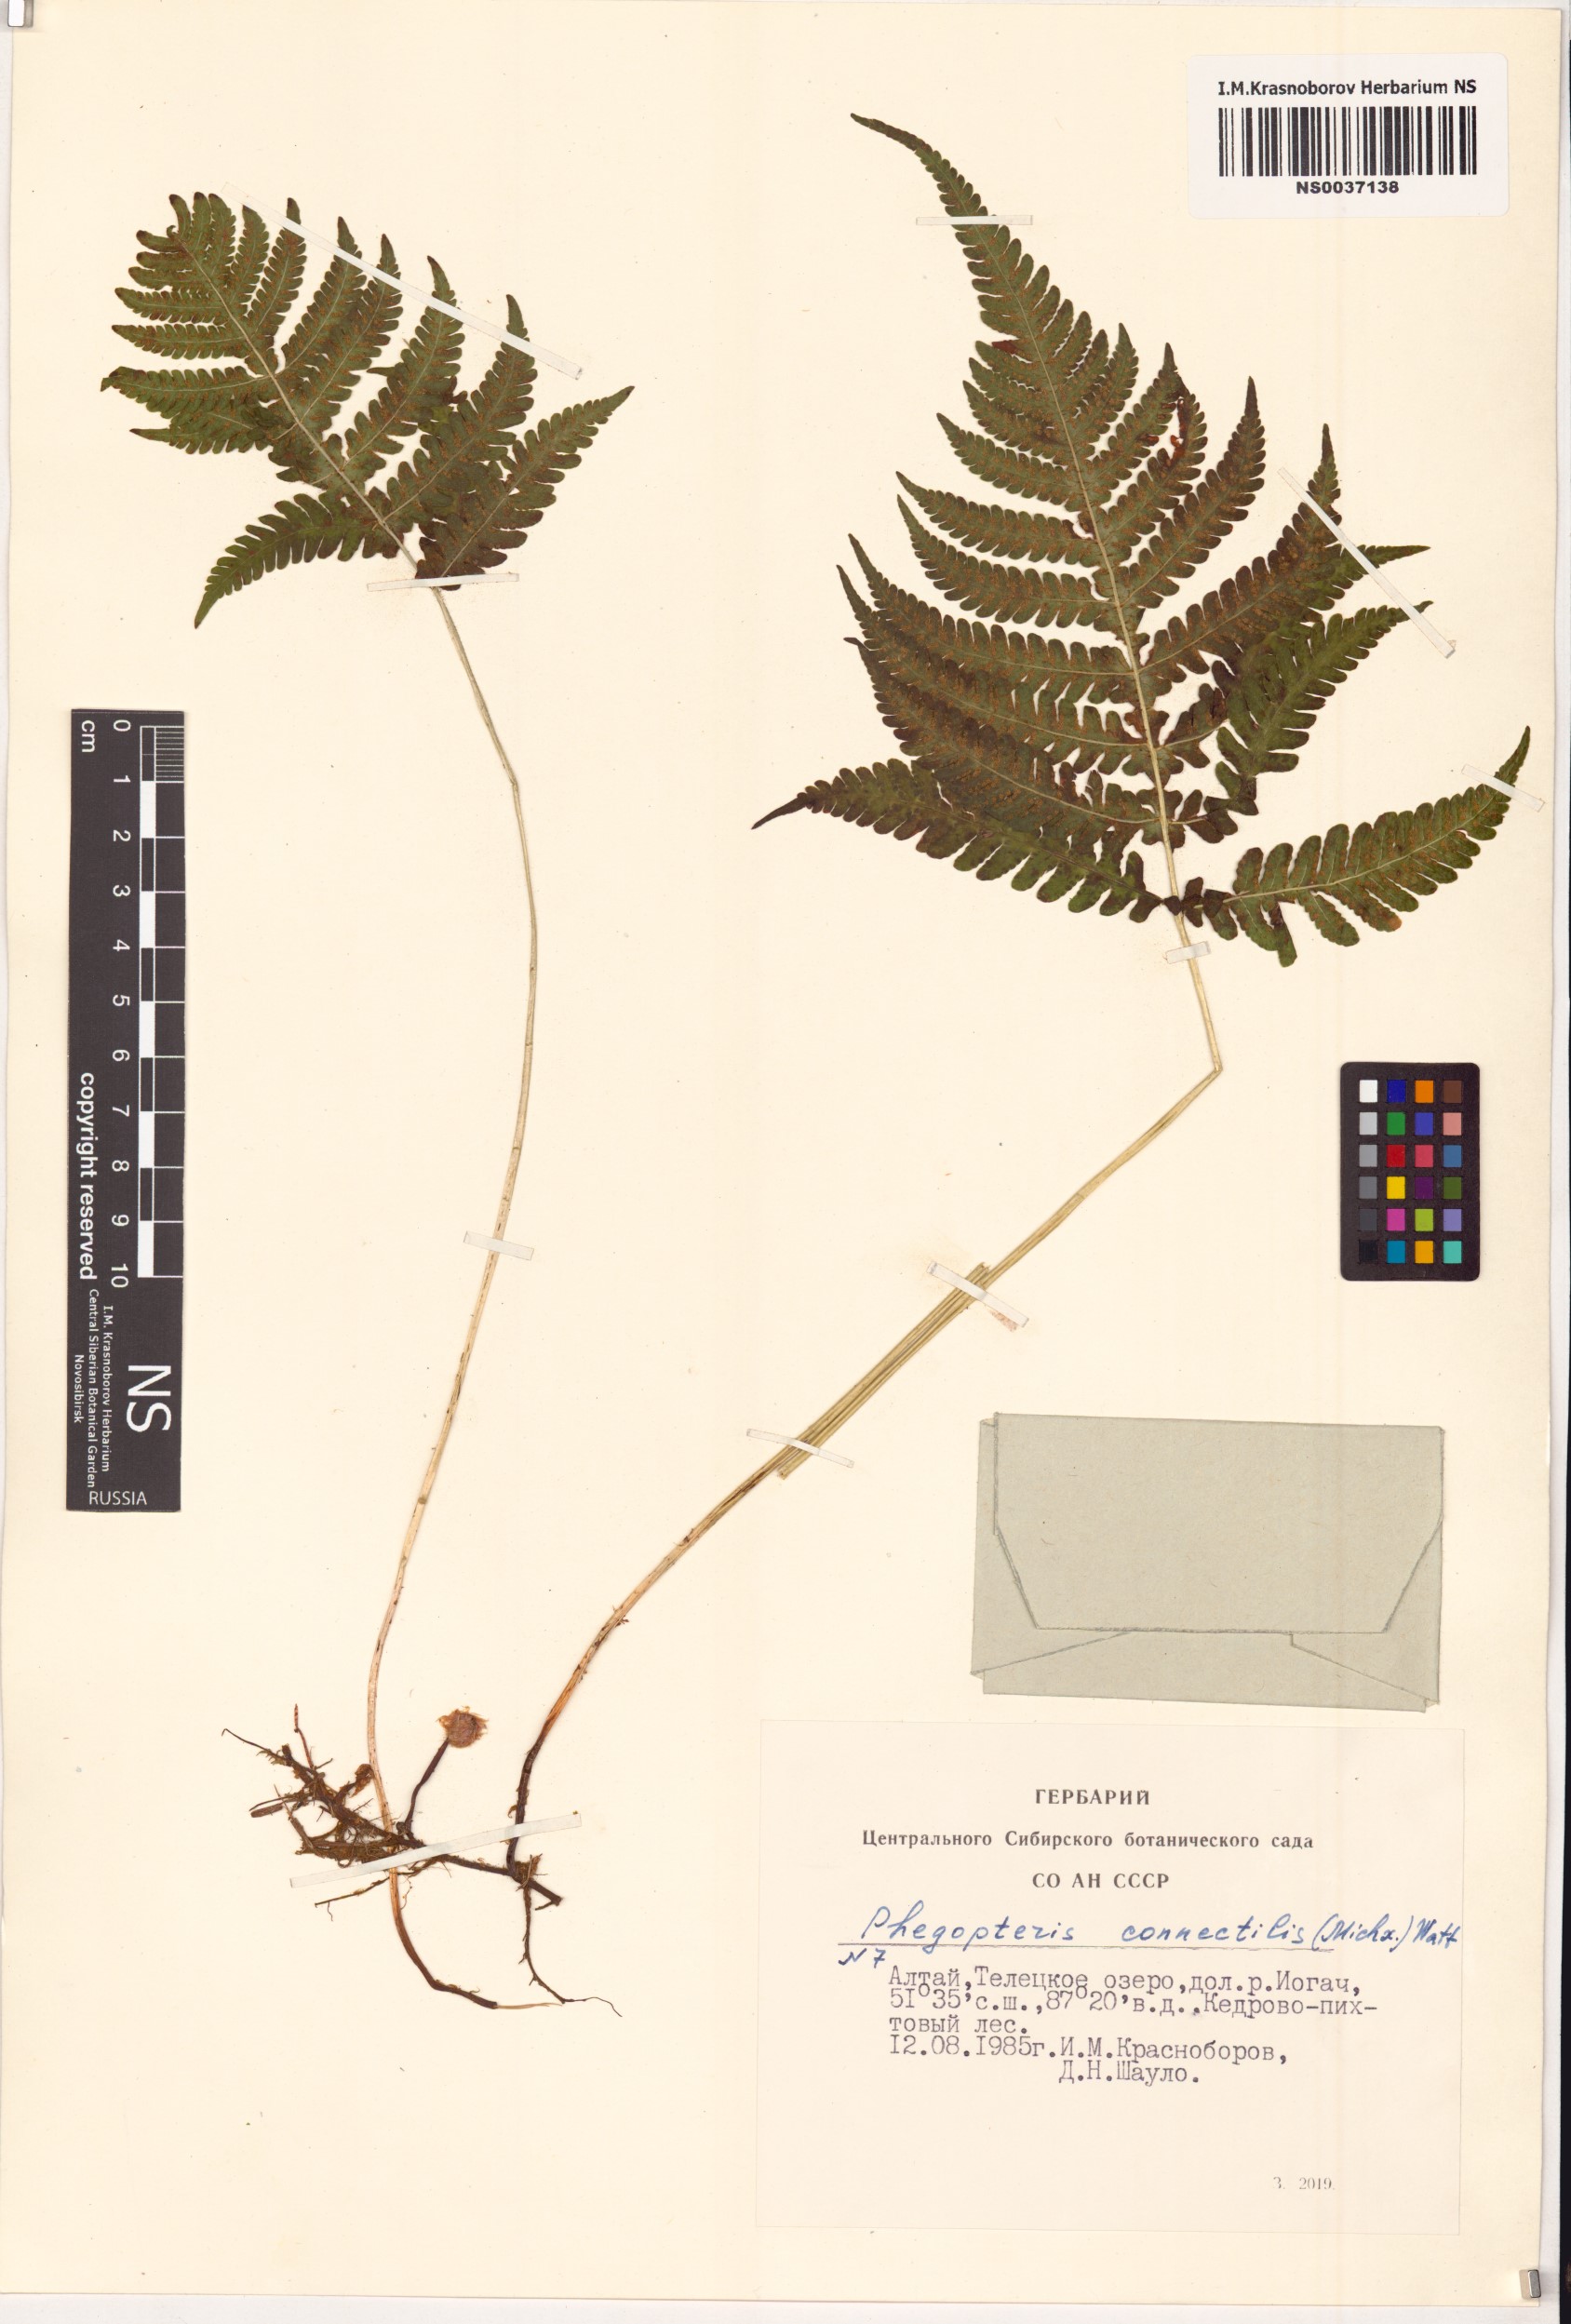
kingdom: Plantae
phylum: Tracheophyta
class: Polypodiopsida
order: Polypodiales
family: Thelypteridaceae
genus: Phegopteris
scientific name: Phegopteris connectilis
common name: Beech fern
